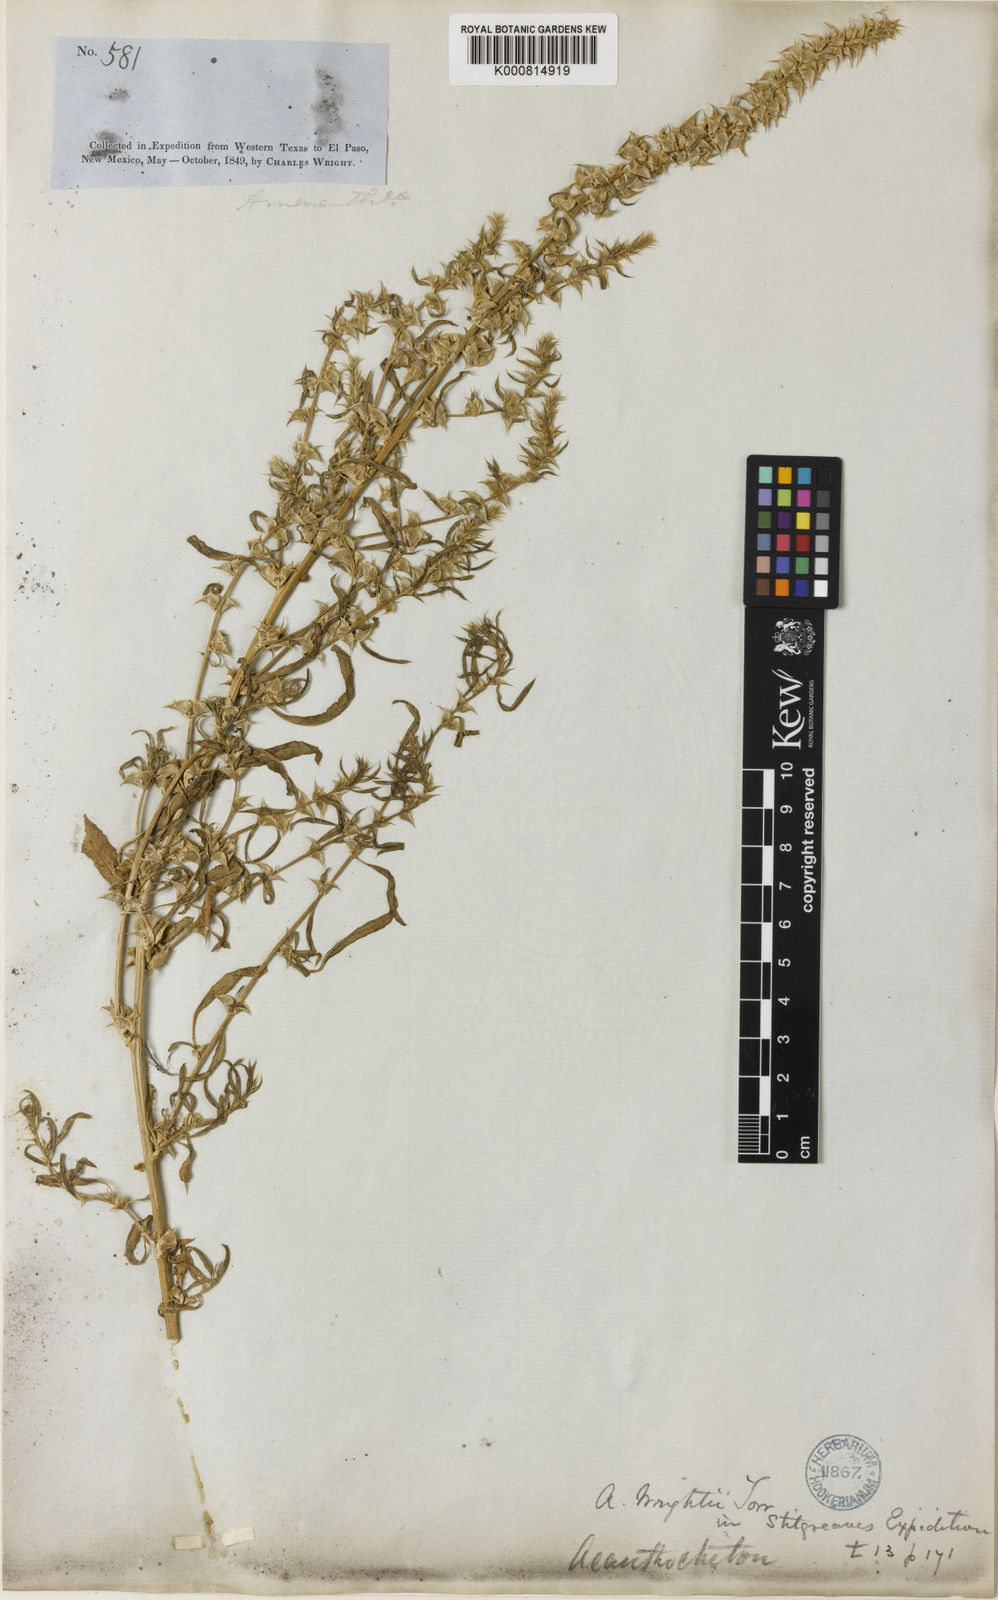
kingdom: Plantae
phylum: Tracheophyta
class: Magnoliopsida
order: Caryophyllales
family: Amaranthaceae
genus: Amaranthus
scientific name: Amaranthus acanthochiton
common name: Greenstripe
